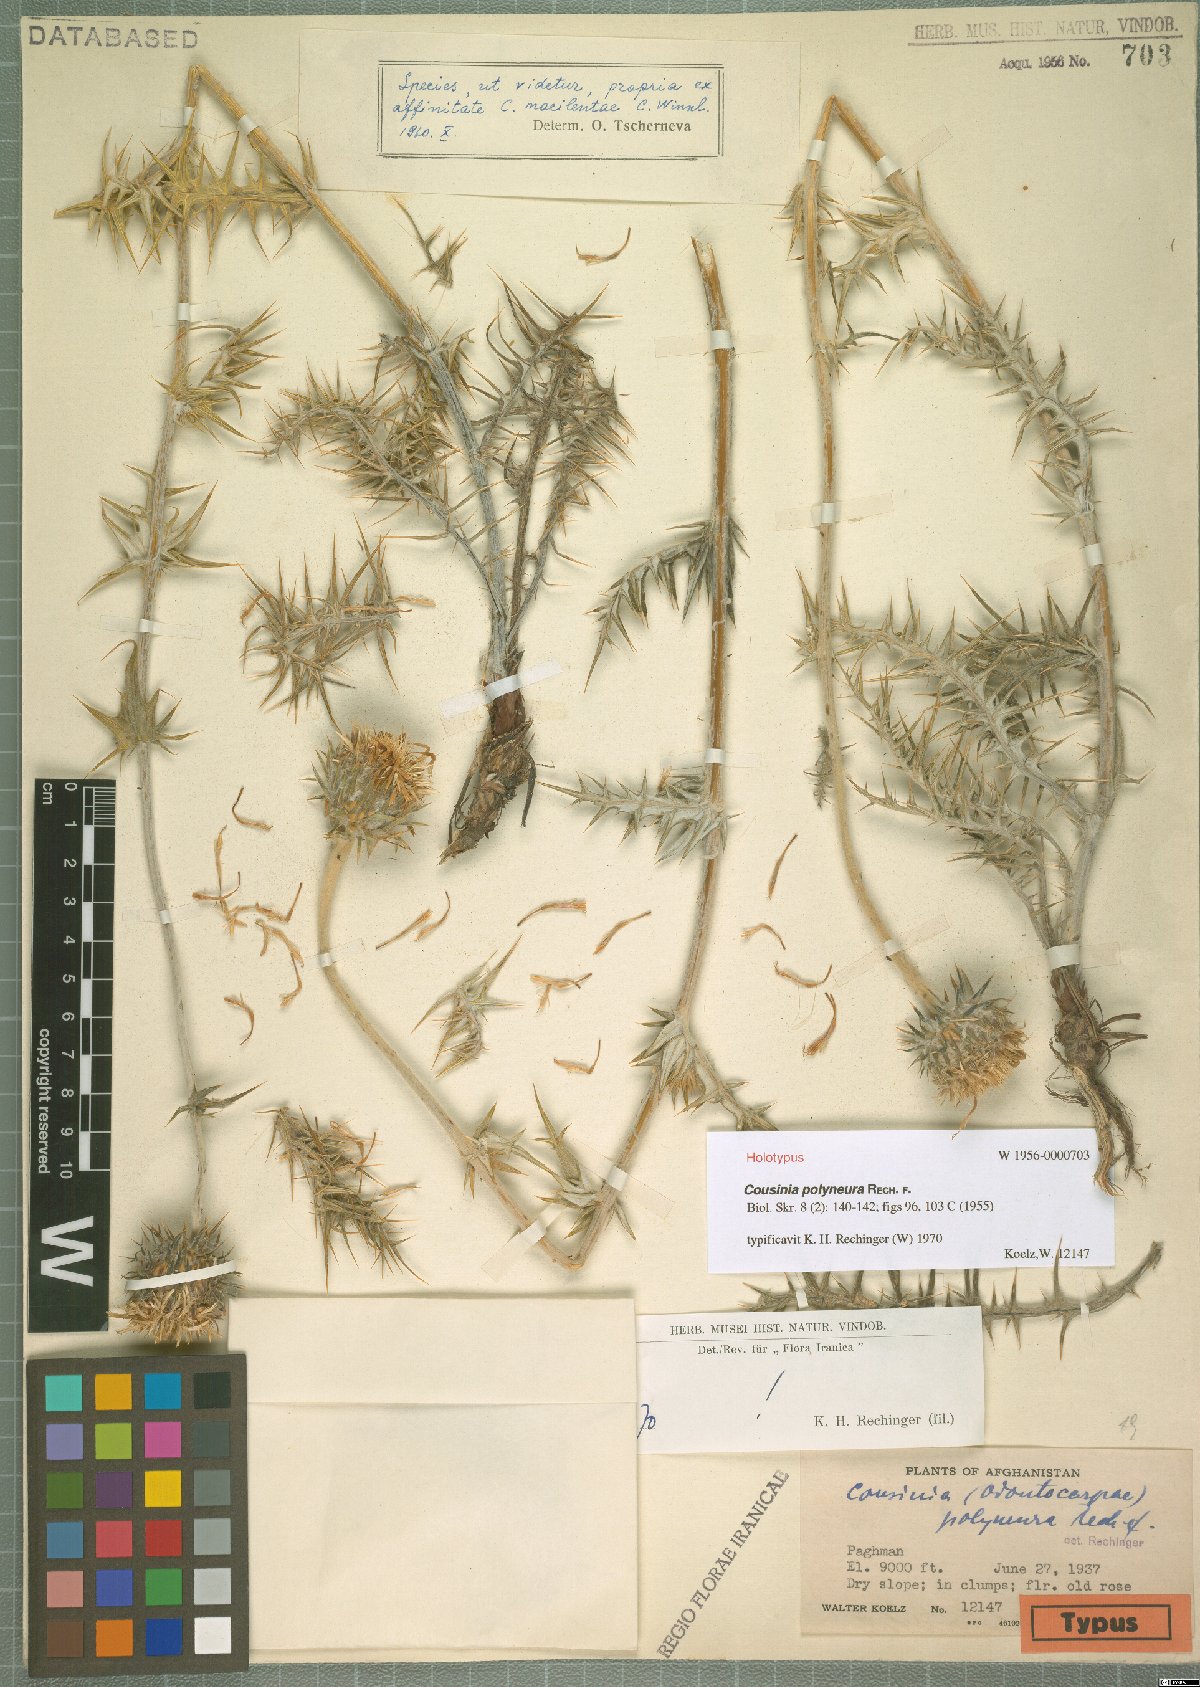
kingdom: Plantae
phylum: Tracheophyta
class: Magnoliopsida
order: Asterales
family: Asteraceae
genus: Cousinia
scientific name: Cousinia polyneura
